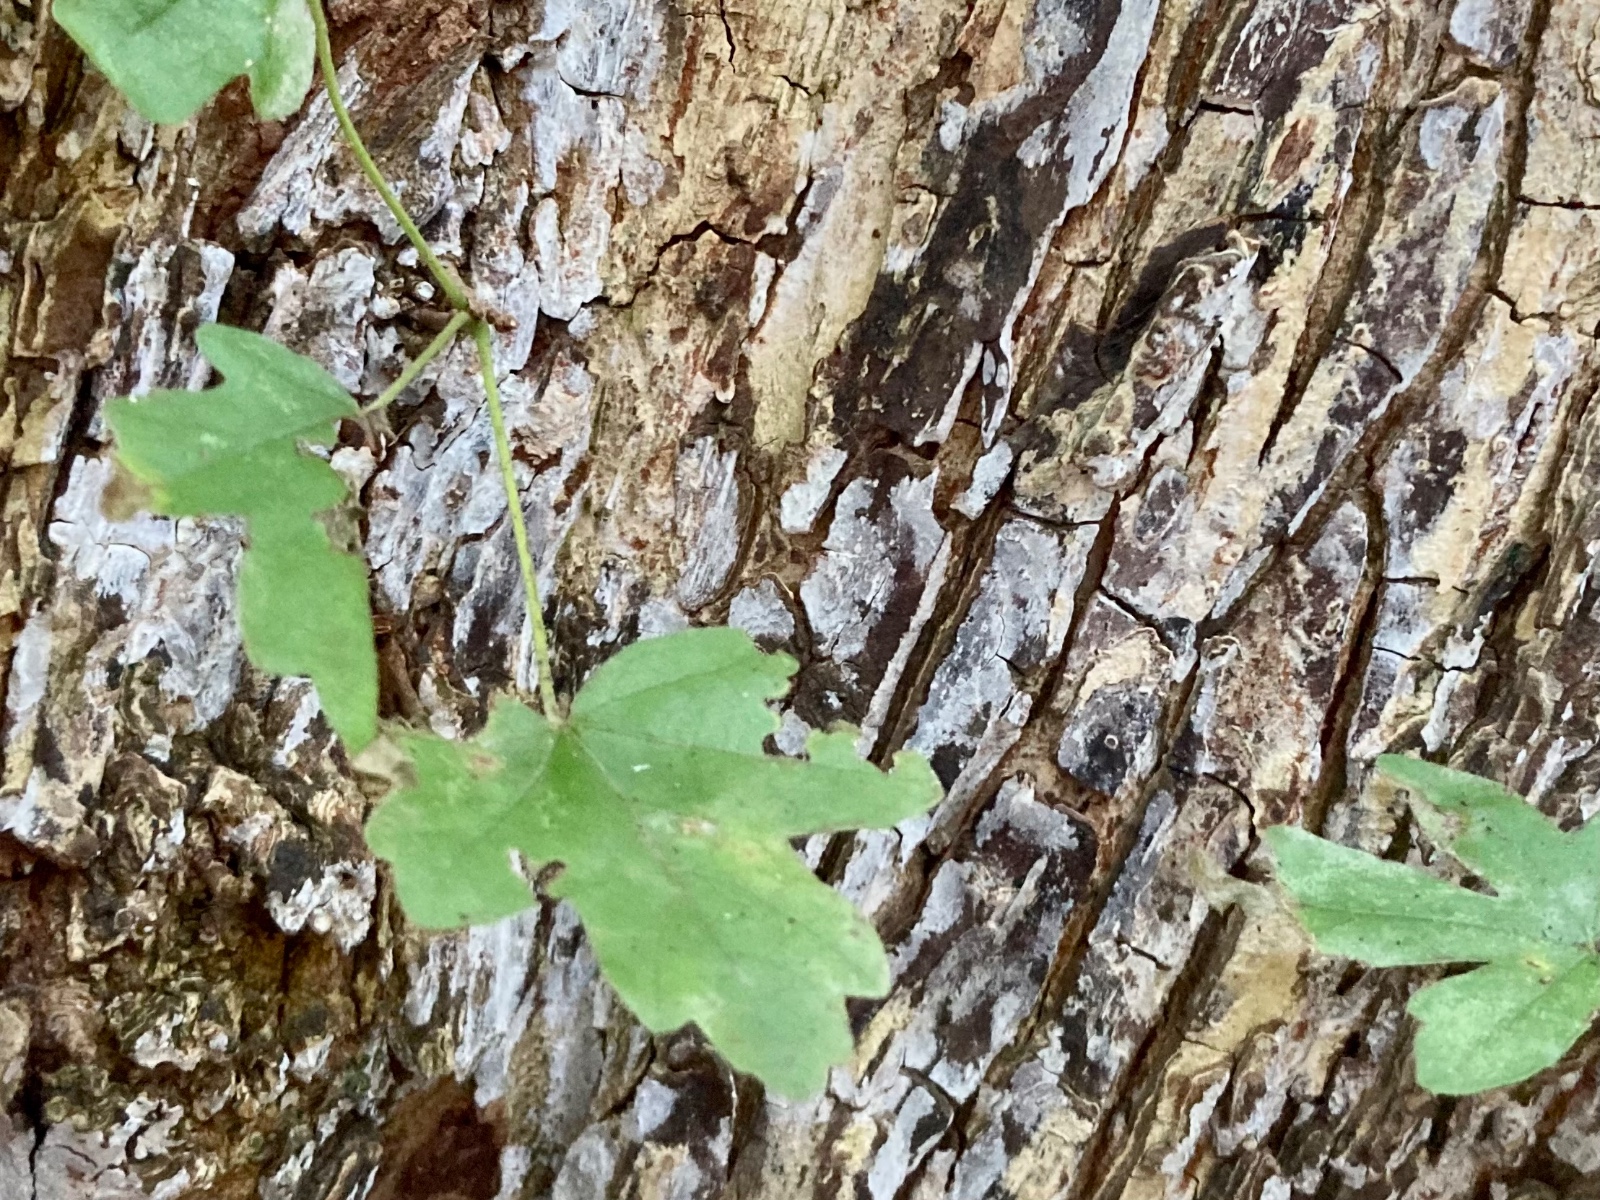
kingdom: Fungi
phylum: Basidiomycota
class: Agaricomycetes
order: Agaricales
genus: Dendrothele
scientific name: Dendrothele acerina
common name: navr-kalkplet
